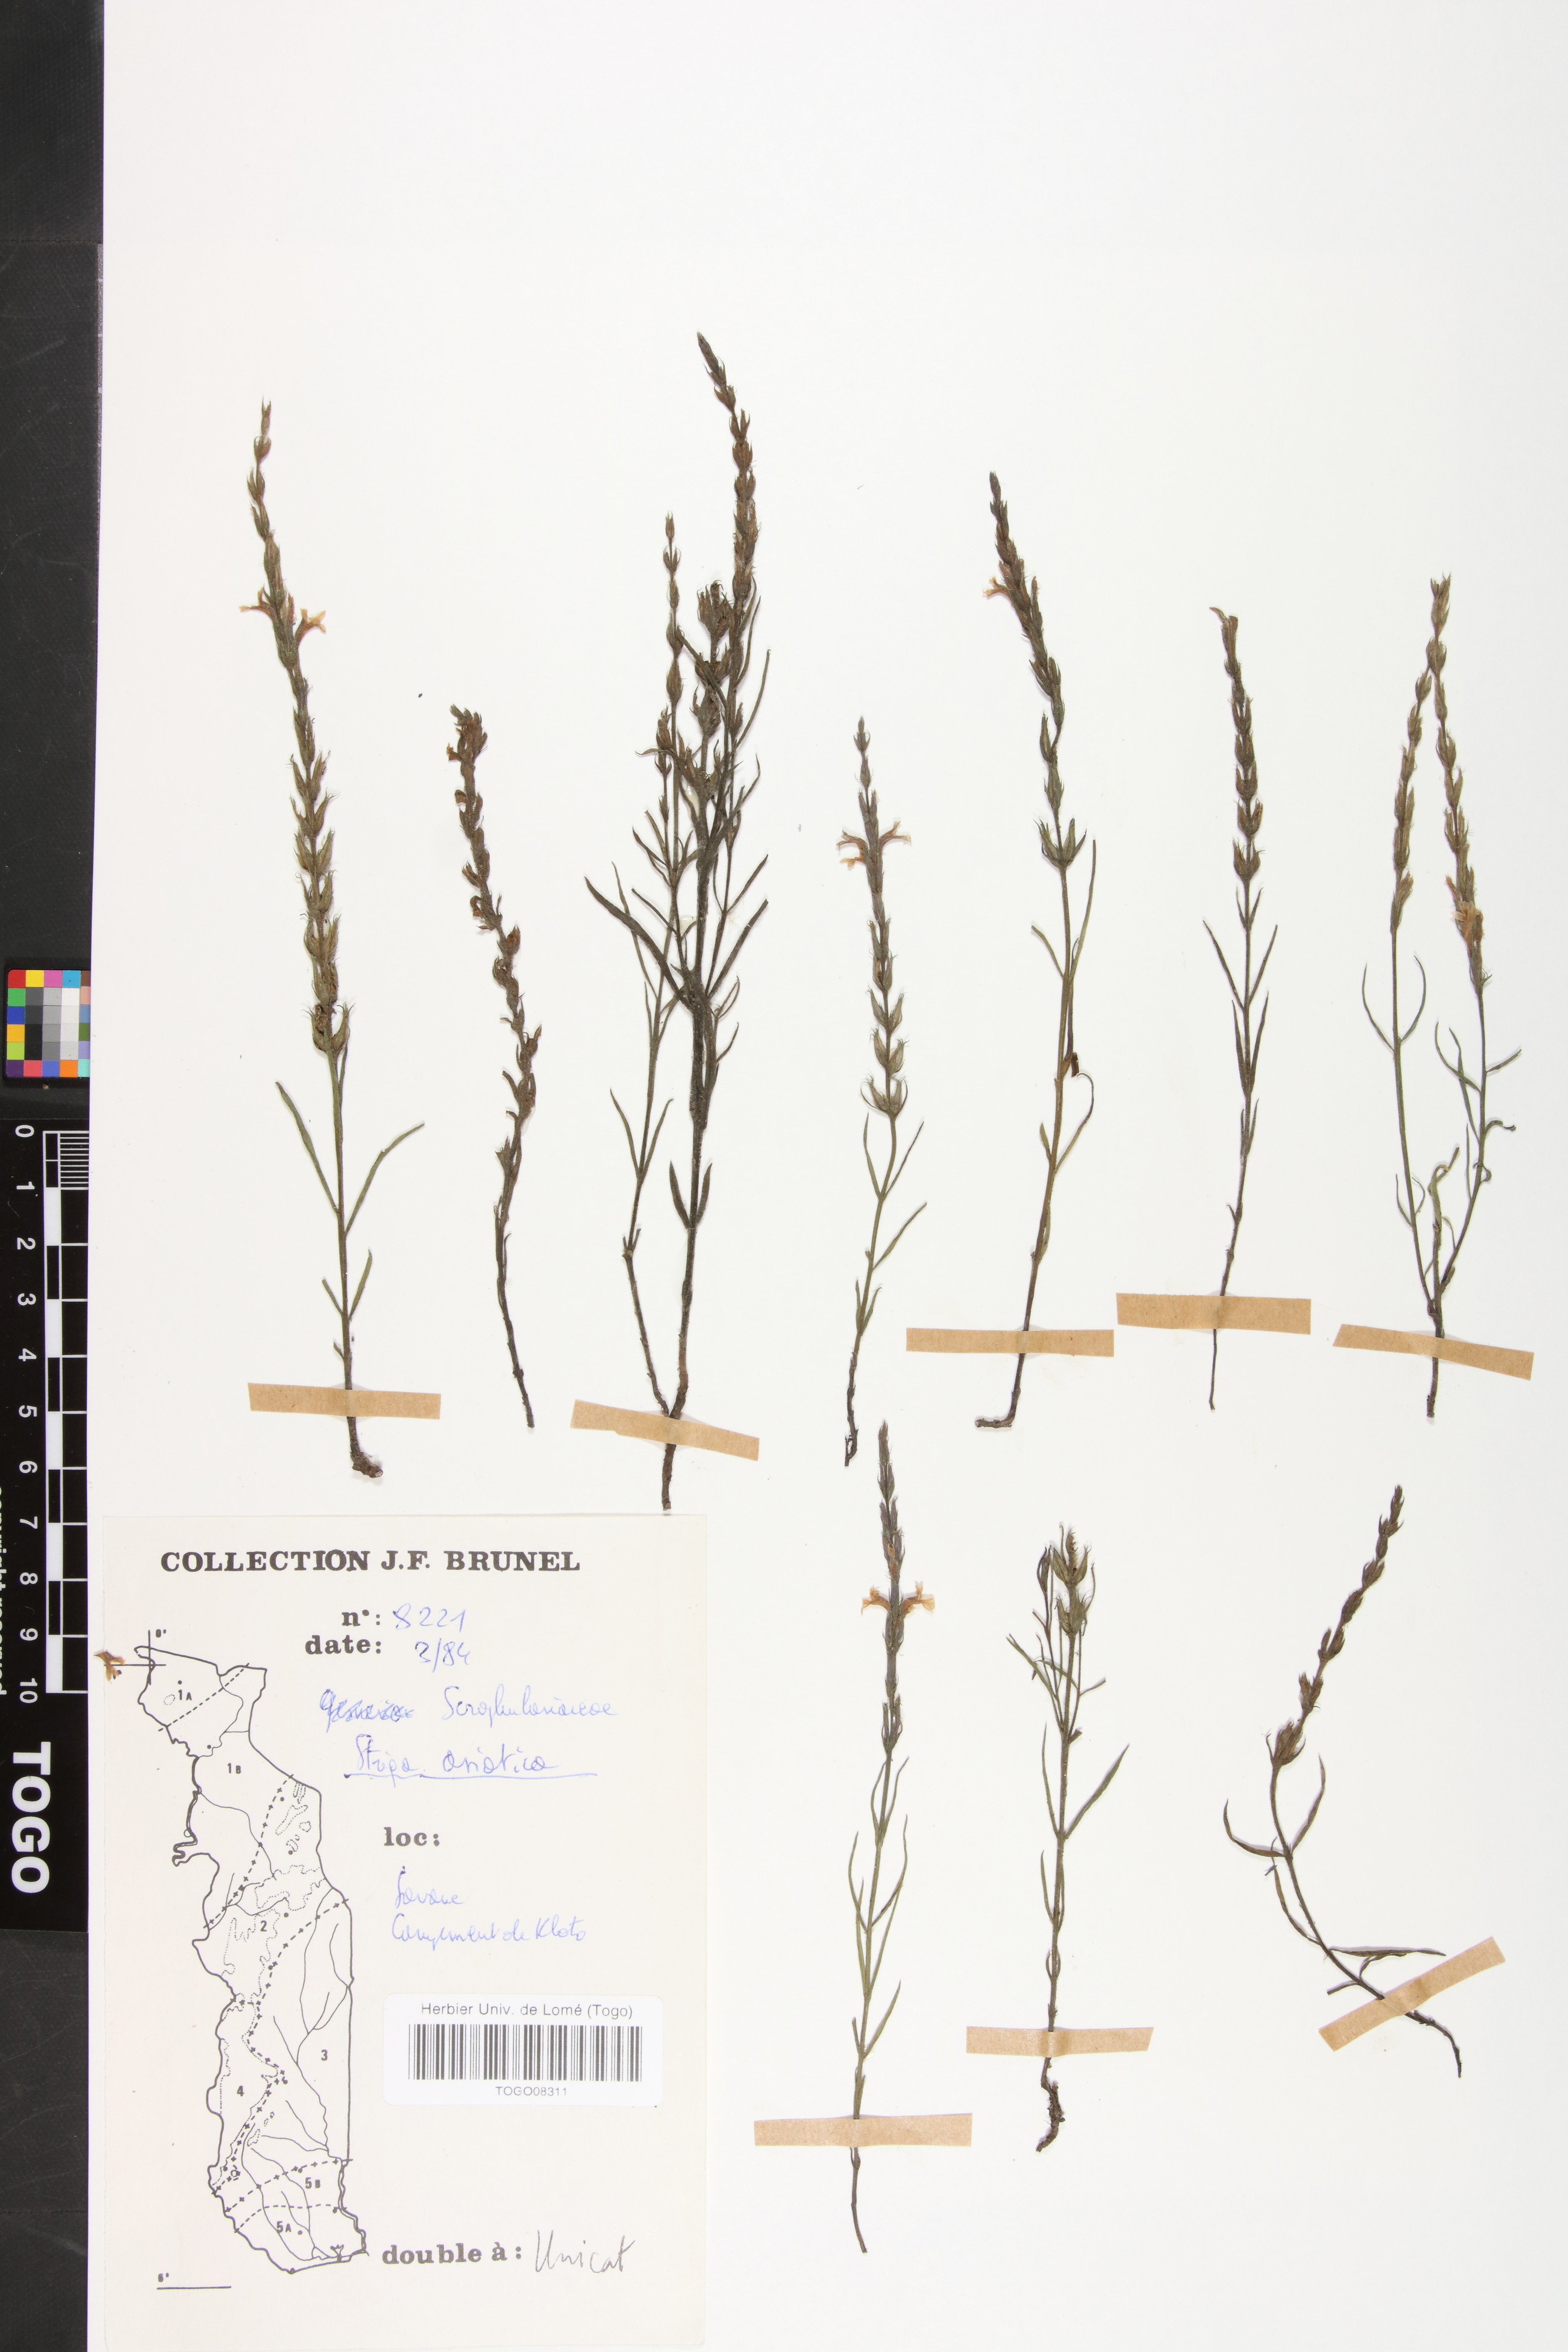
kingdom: Plantae
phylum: Tracheophyta
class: Magnoliopsida
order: Lamiales
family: Orobanchaceae
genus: Striga
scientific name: Striga asiatica
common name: Asiatic witchweed
